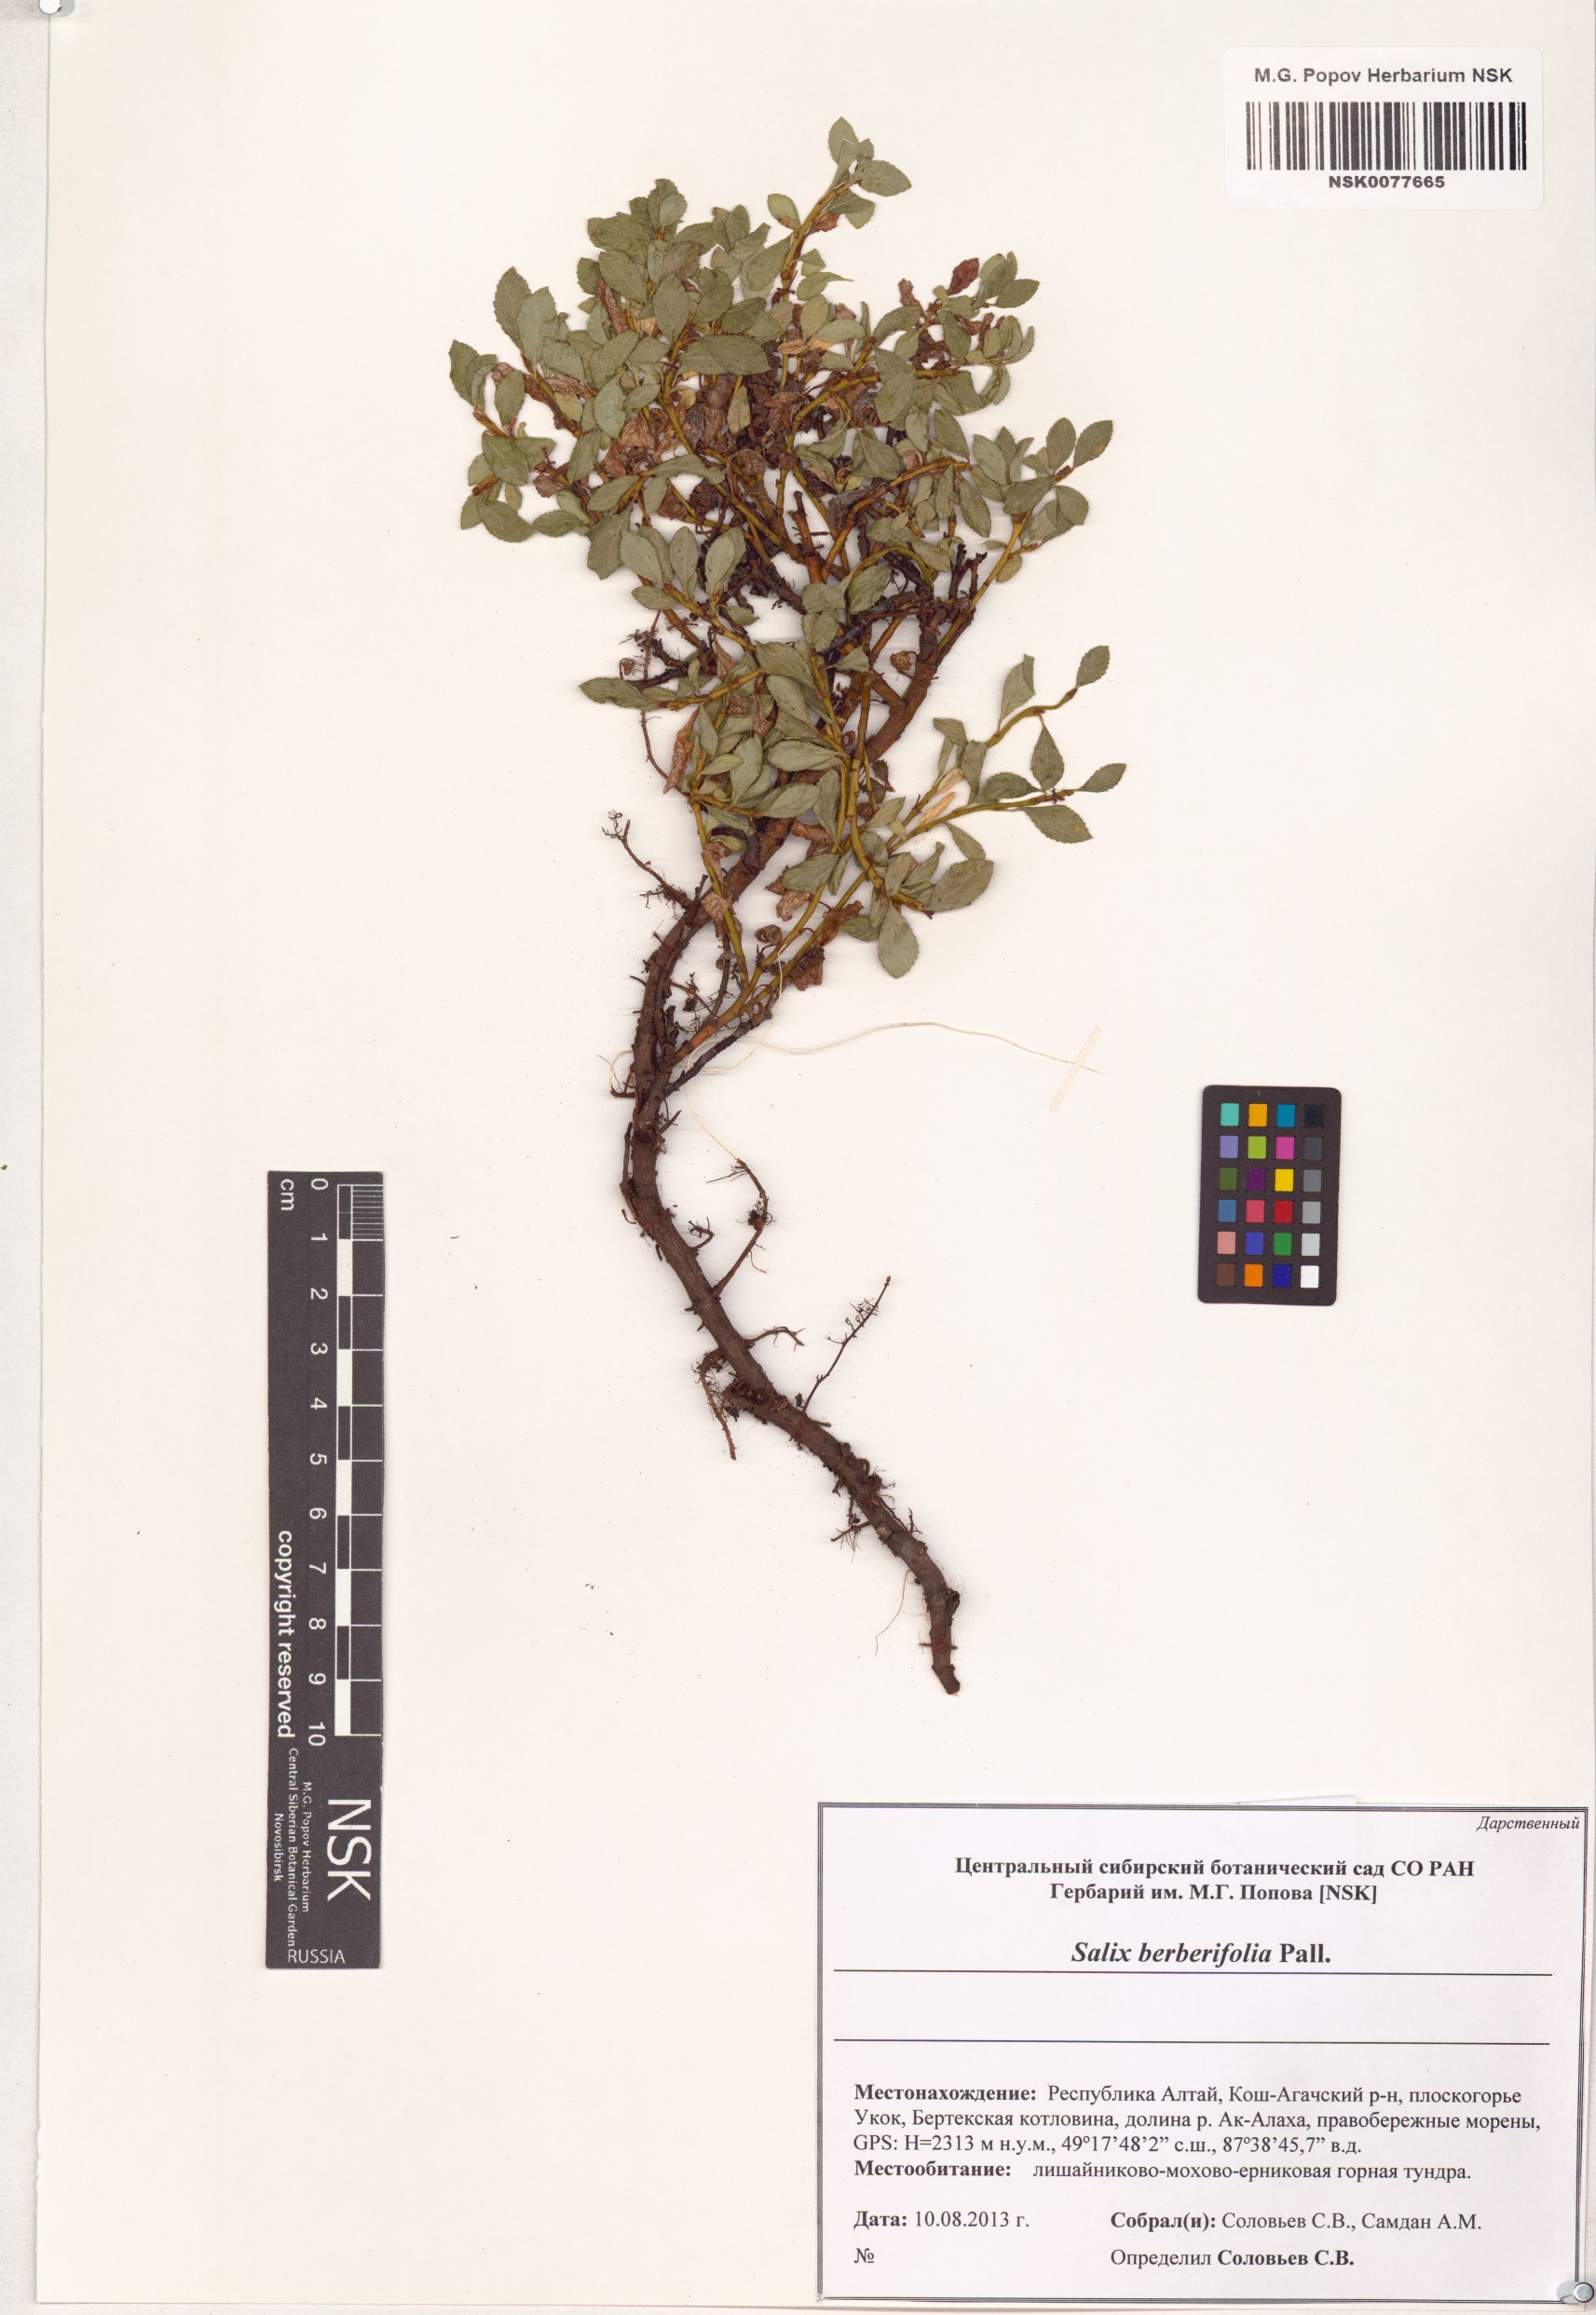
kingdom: Plantae
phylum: Tracheophyta
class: Magnoliopsida
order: Malpighiales
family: Salicaceae
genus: Salix
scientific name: Salix berberifolia
